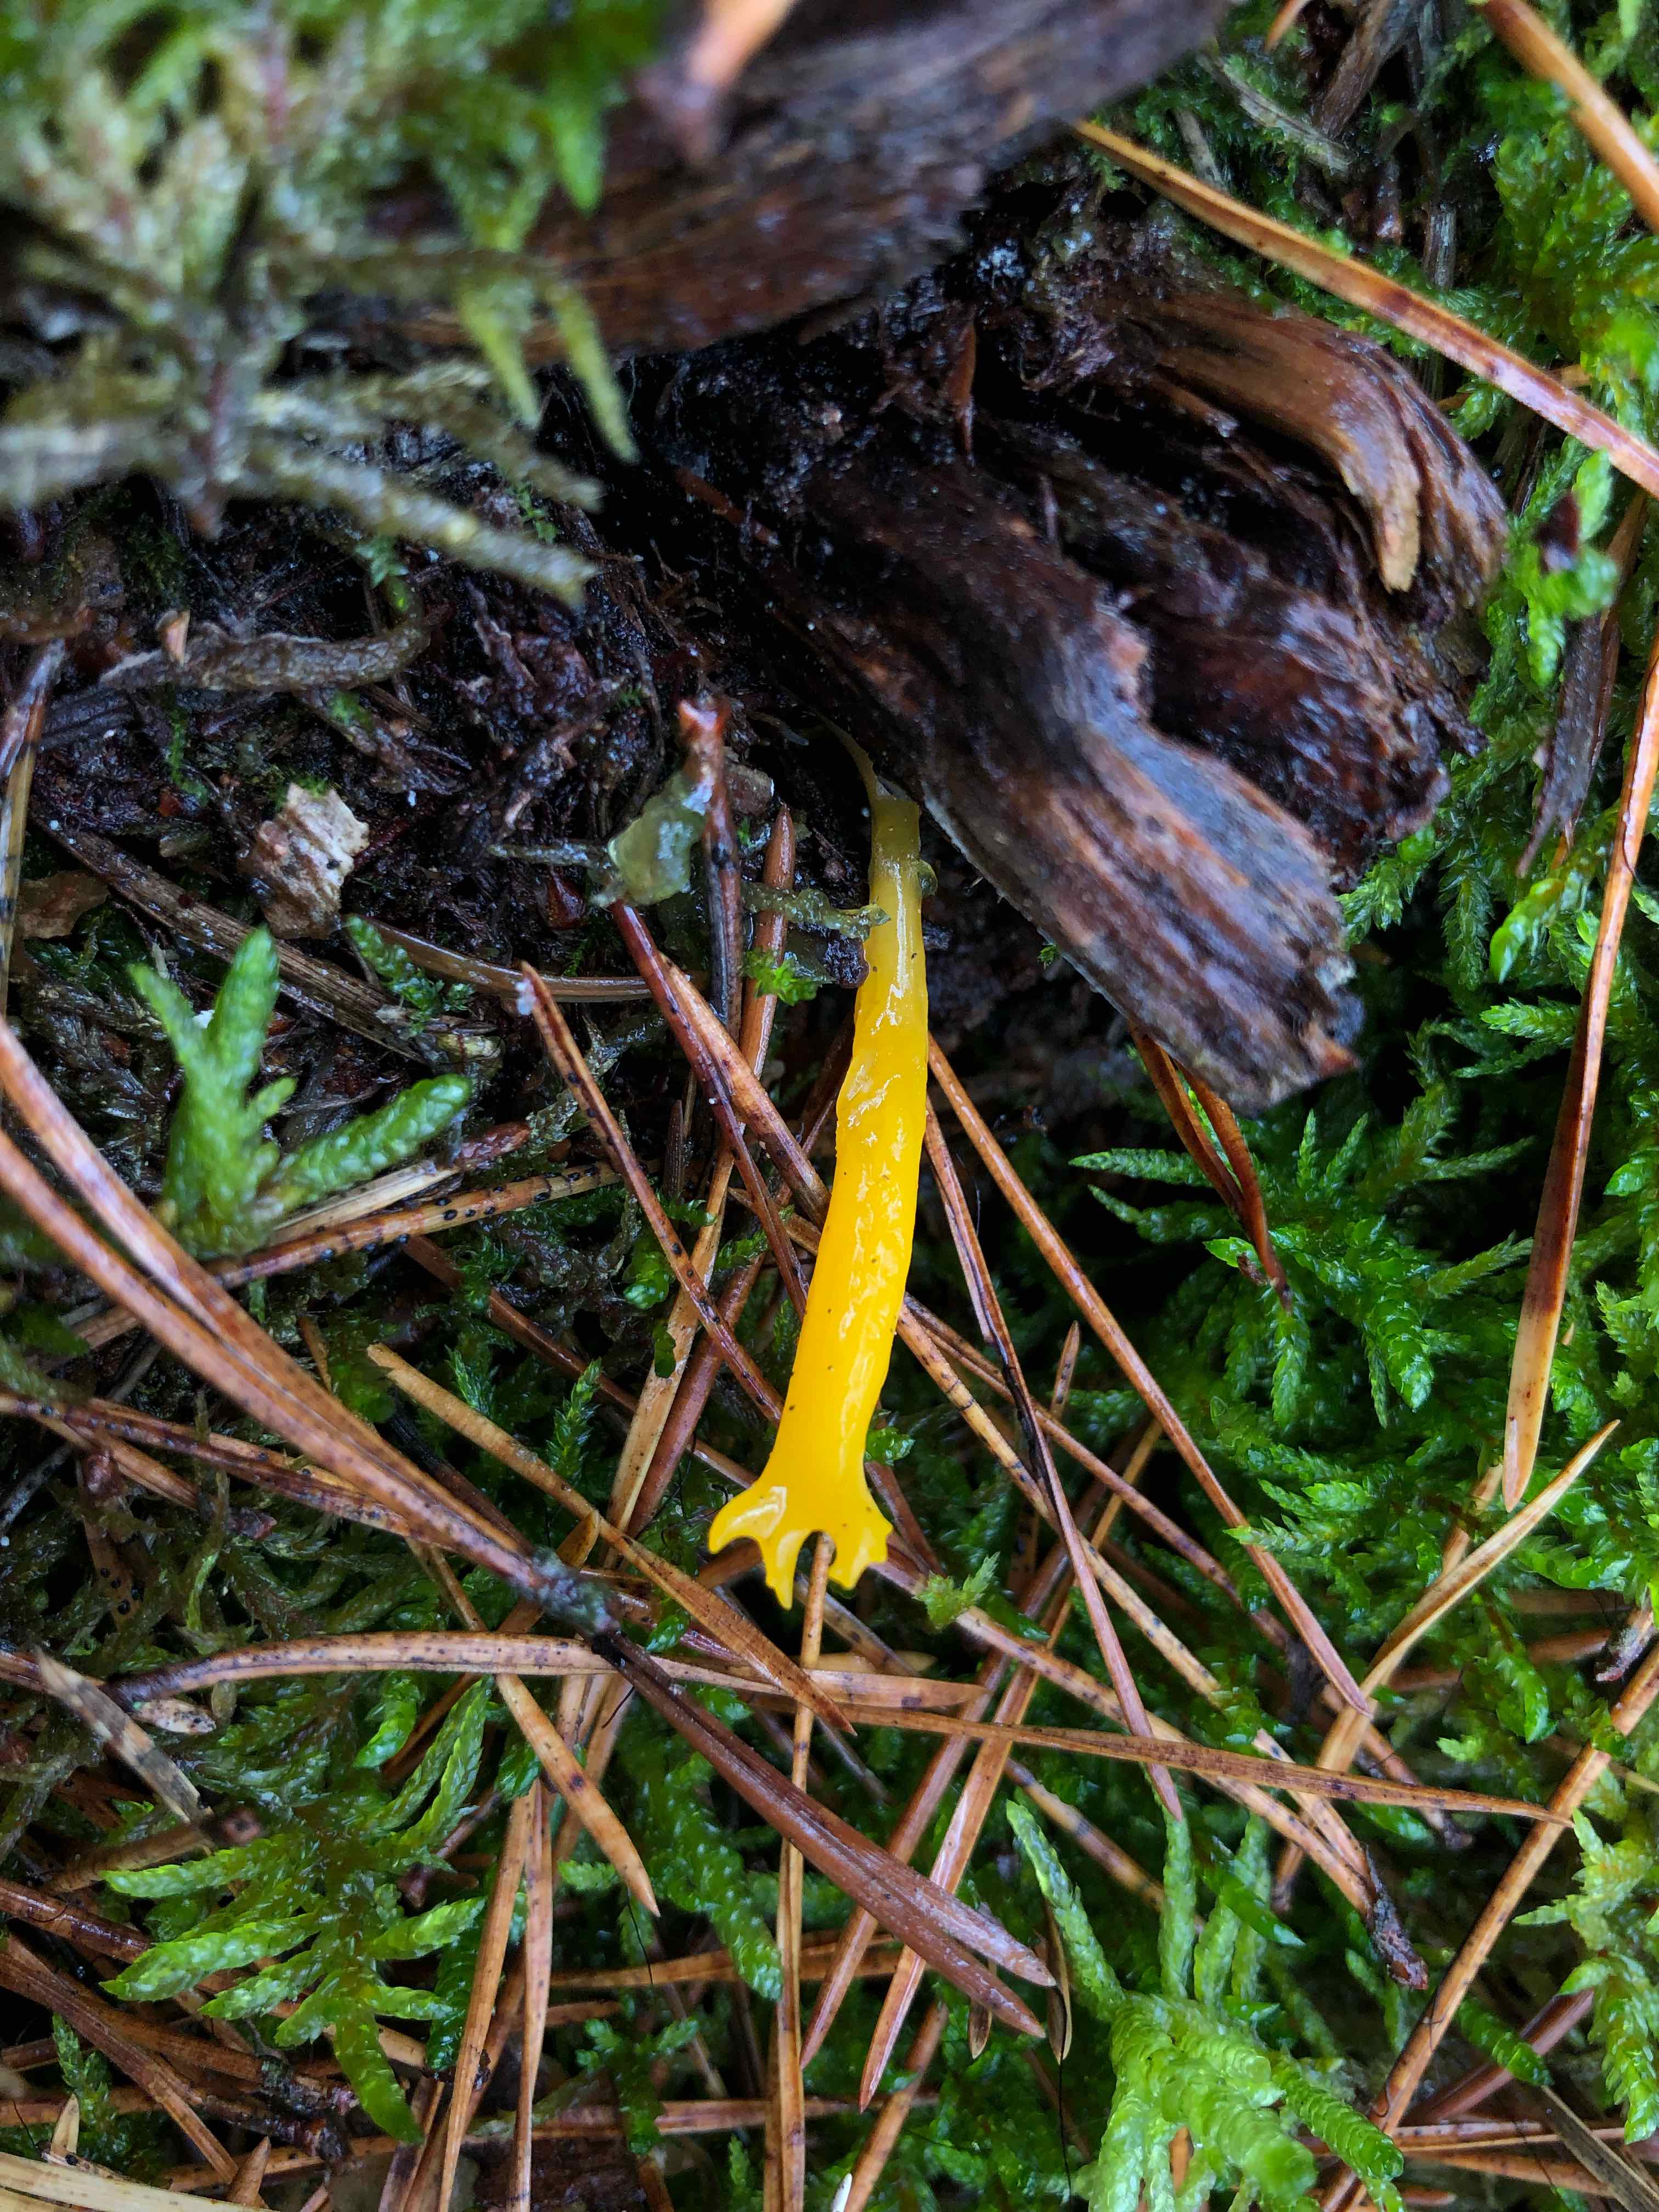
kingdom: Fungi
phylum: Basidiomycota
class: Dacrymycetes
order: Dacrymycetales
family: Dacrymycetaceae
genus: Calocera
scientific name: Calocera viscosa
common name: almindelig guldgaffel
